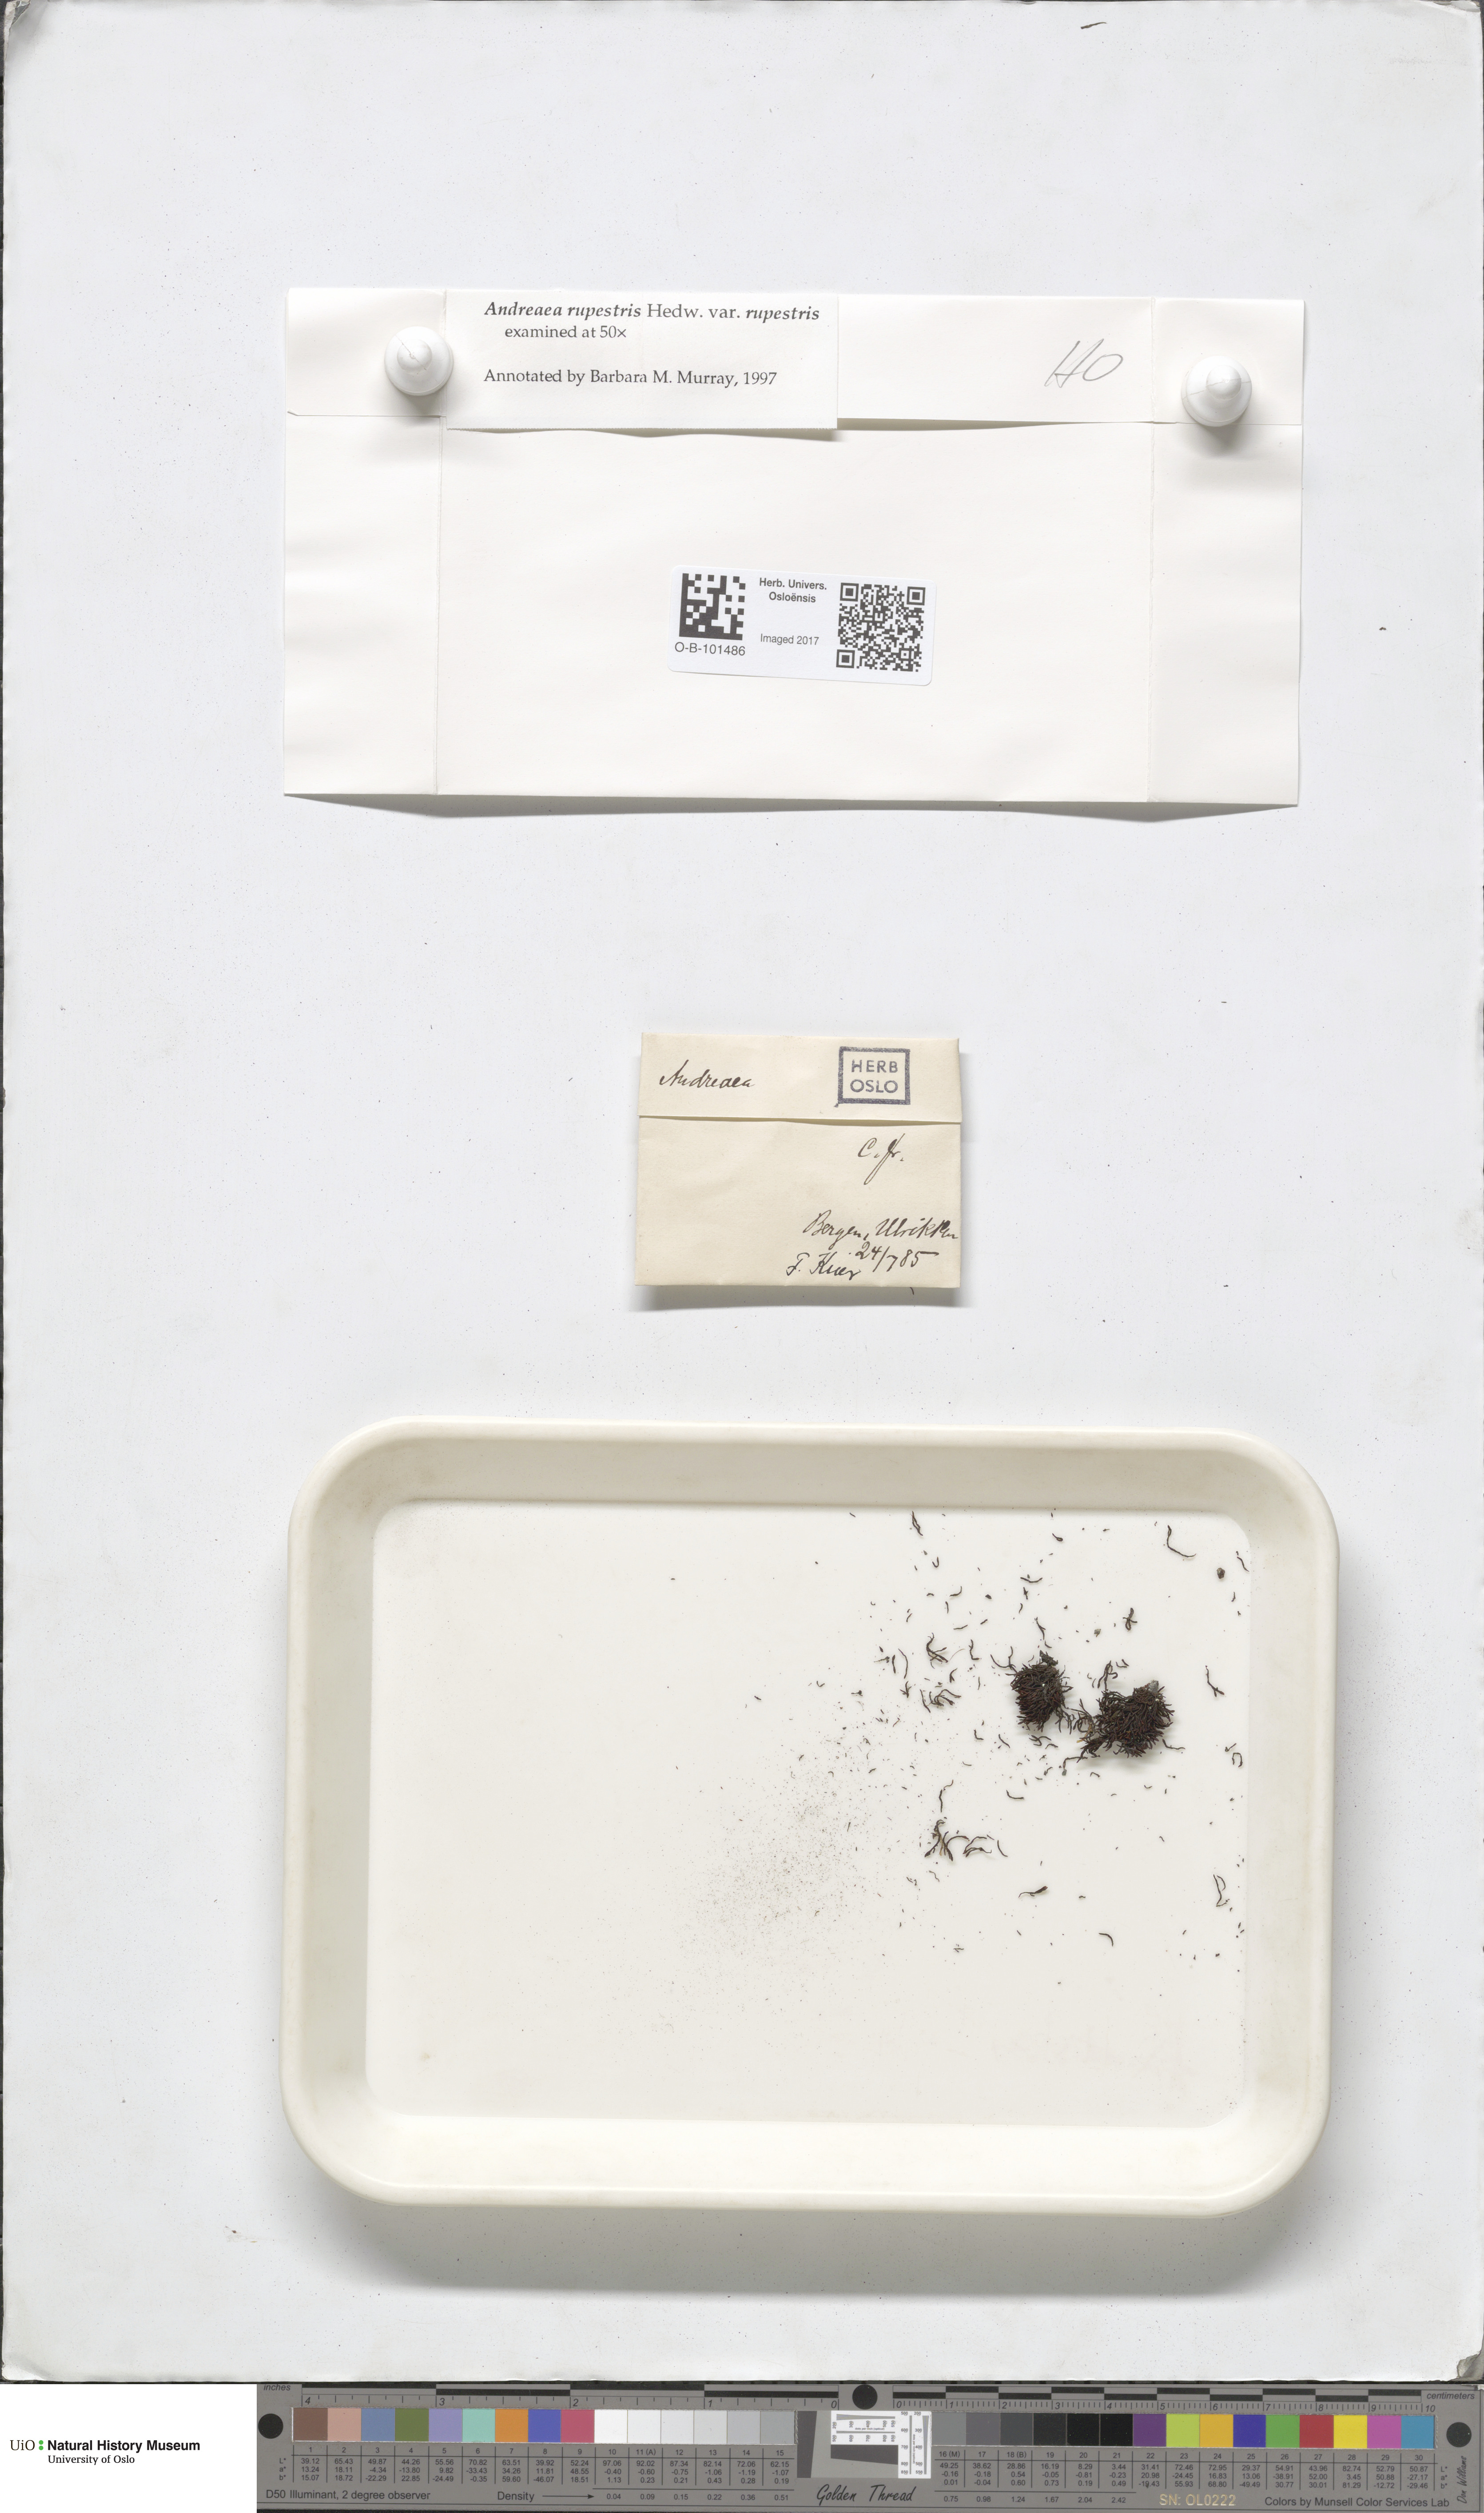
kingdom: Plantae
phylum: Bryophyta
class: Andreaeopsida
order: Andreaeales
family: Andreaeaceae
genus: Andreaea
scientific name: Andreaea rupestris
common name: Black rock moss
